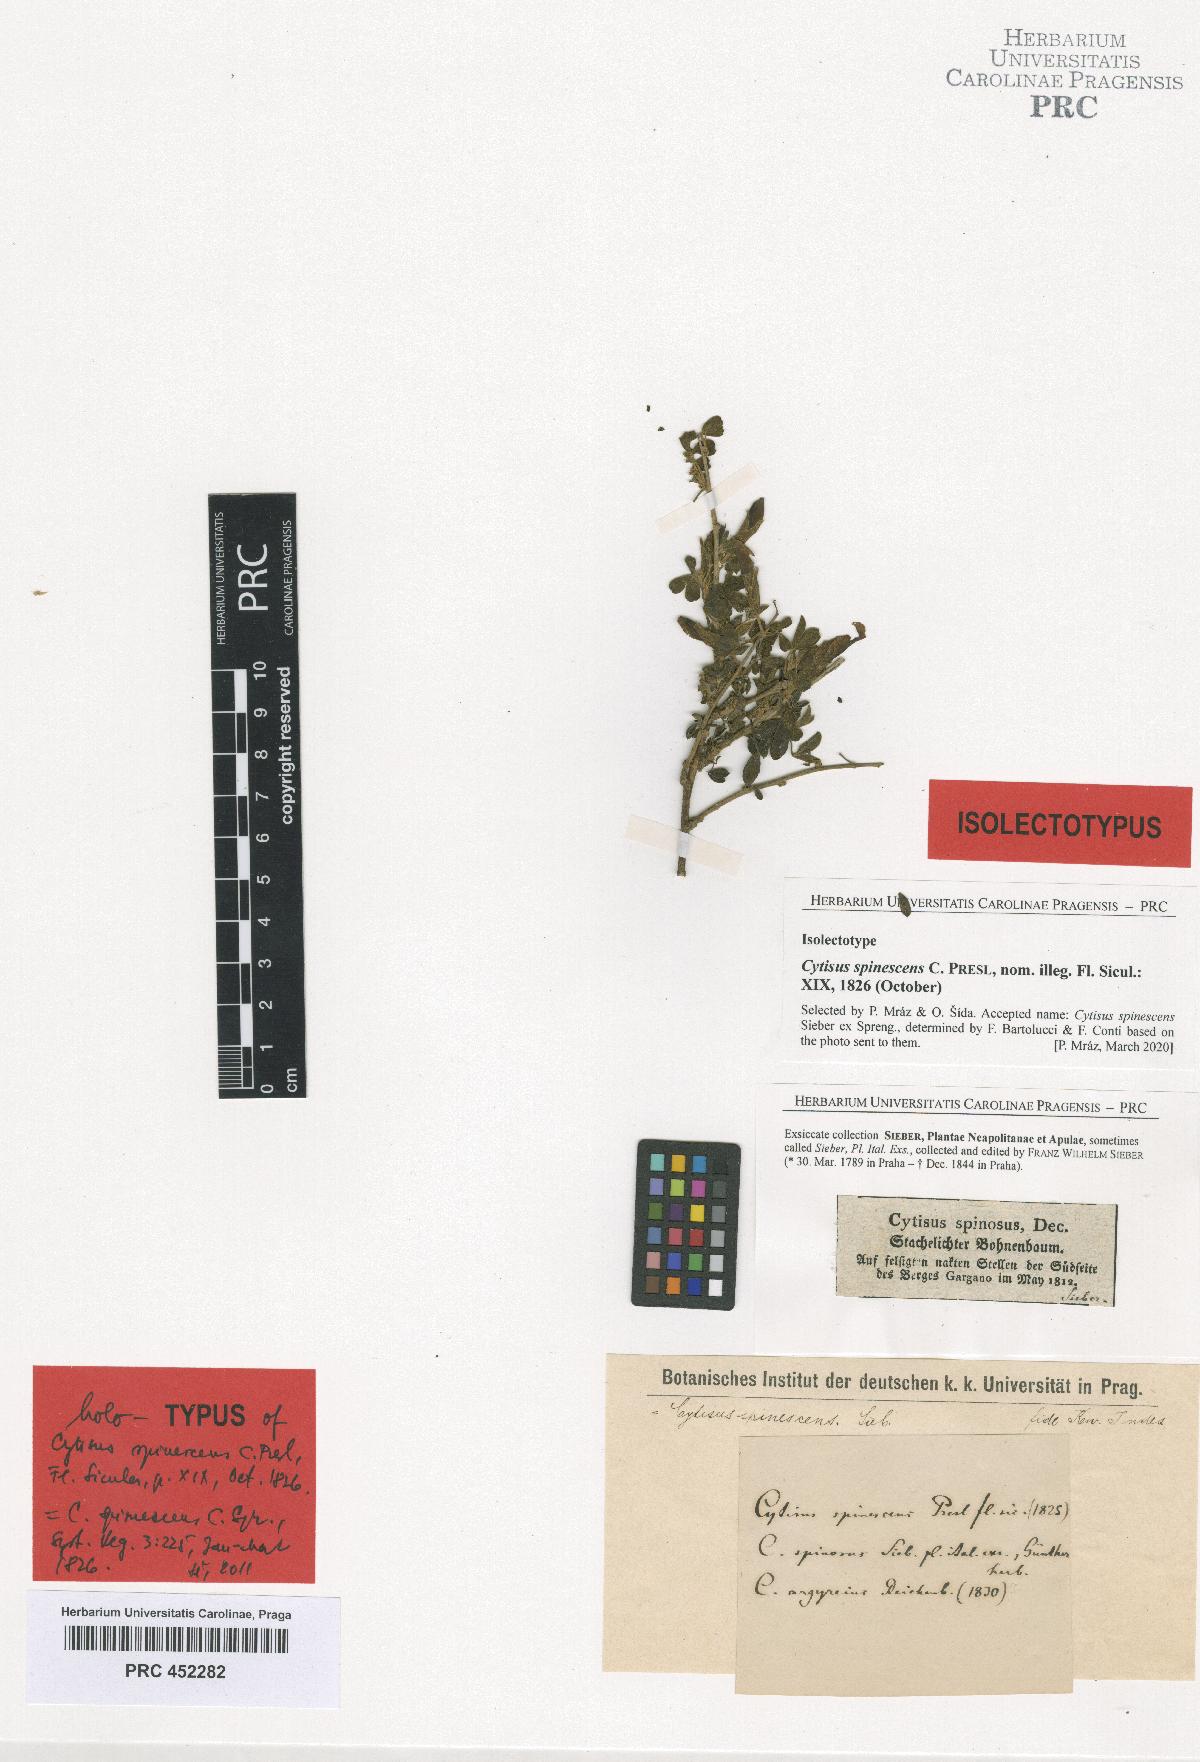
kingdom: Plantae
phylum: Tracheophyta
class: Magnoliopsida
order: Fabales
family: Fabaceae
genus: Chamaecytisus
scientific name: Chamaecytisus spinescens
